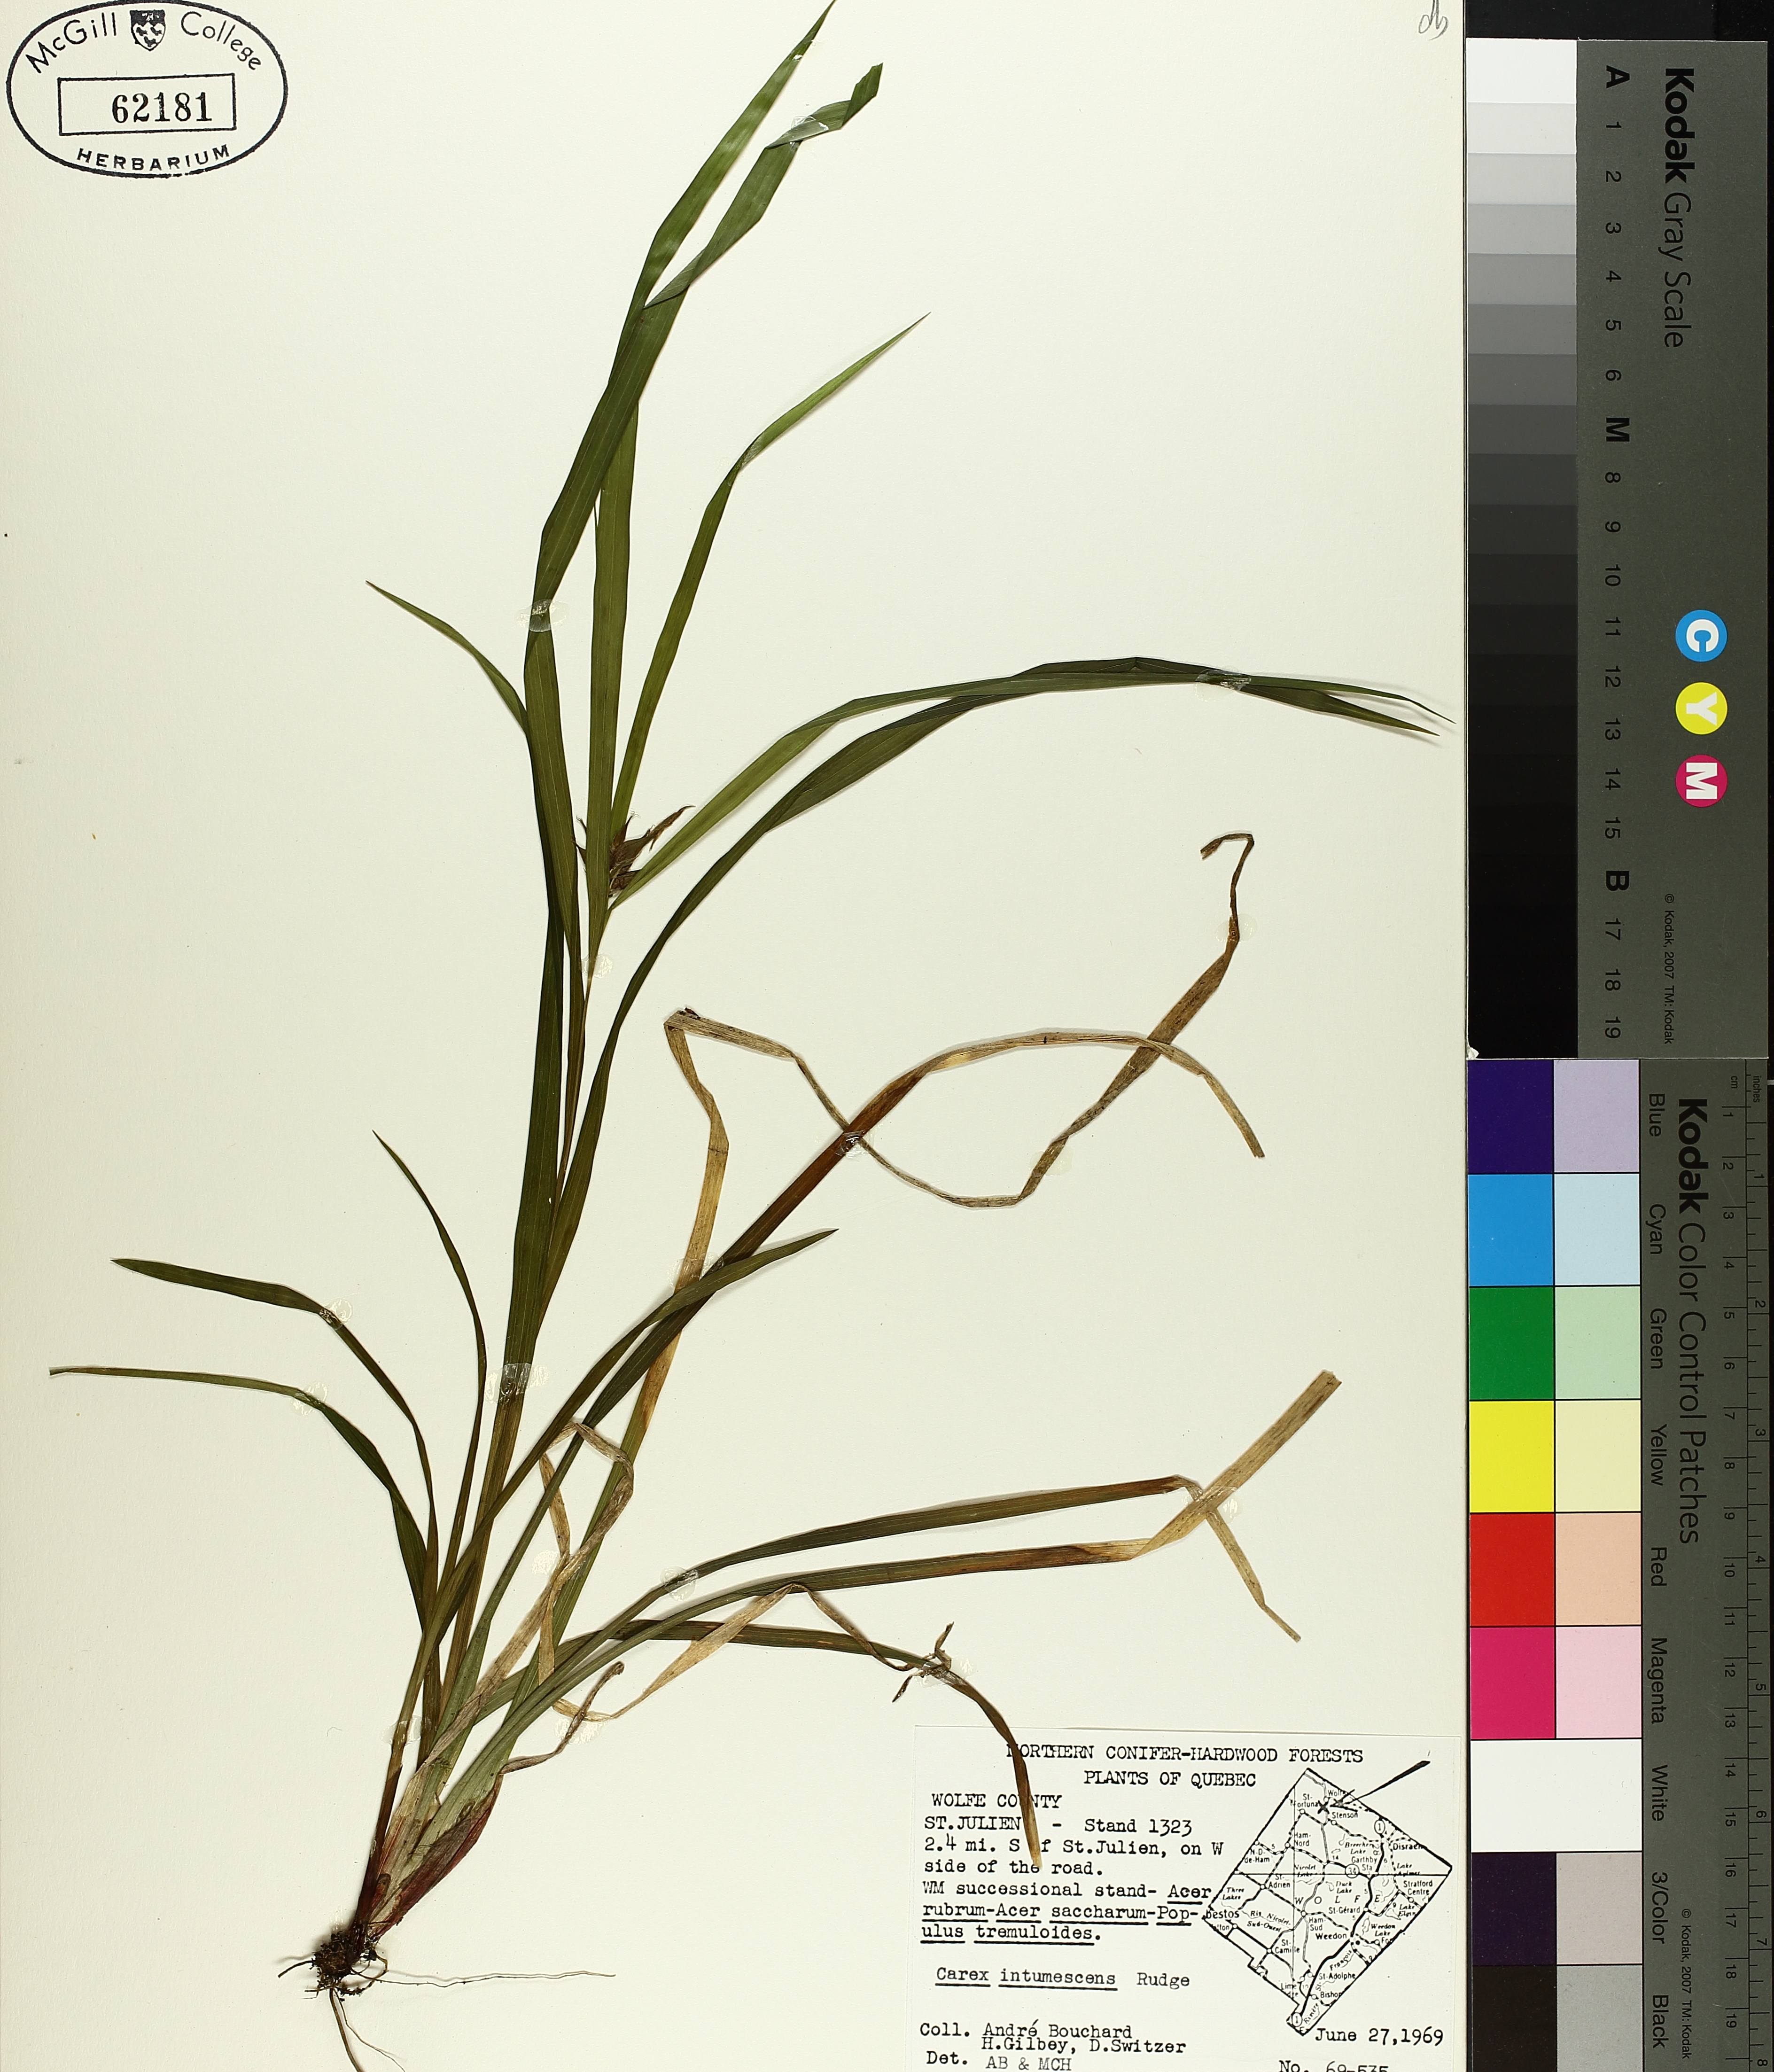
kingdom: Plantae
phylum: Tracheophyta
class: Liliopsida
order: Poales
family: Cyperaceae
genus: Carex
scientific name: Carex intumescens
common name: Greater bladder sedge
